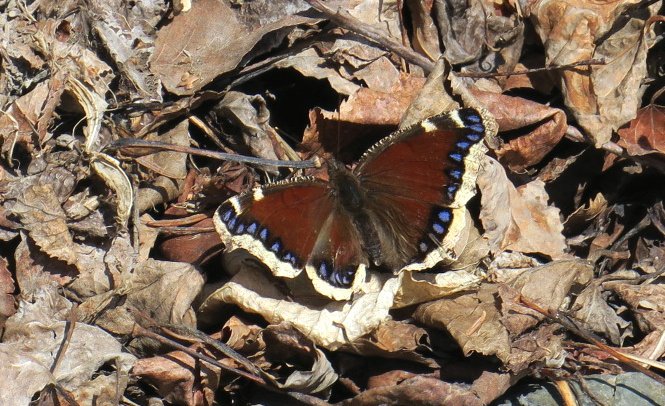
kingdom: Animalia
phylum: Arthropoda
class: Insecta
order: Lepidoptera
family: Nymphalidae
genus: Nymphalis
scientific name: Nymphalis antiopa
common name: Mourning Cloak
